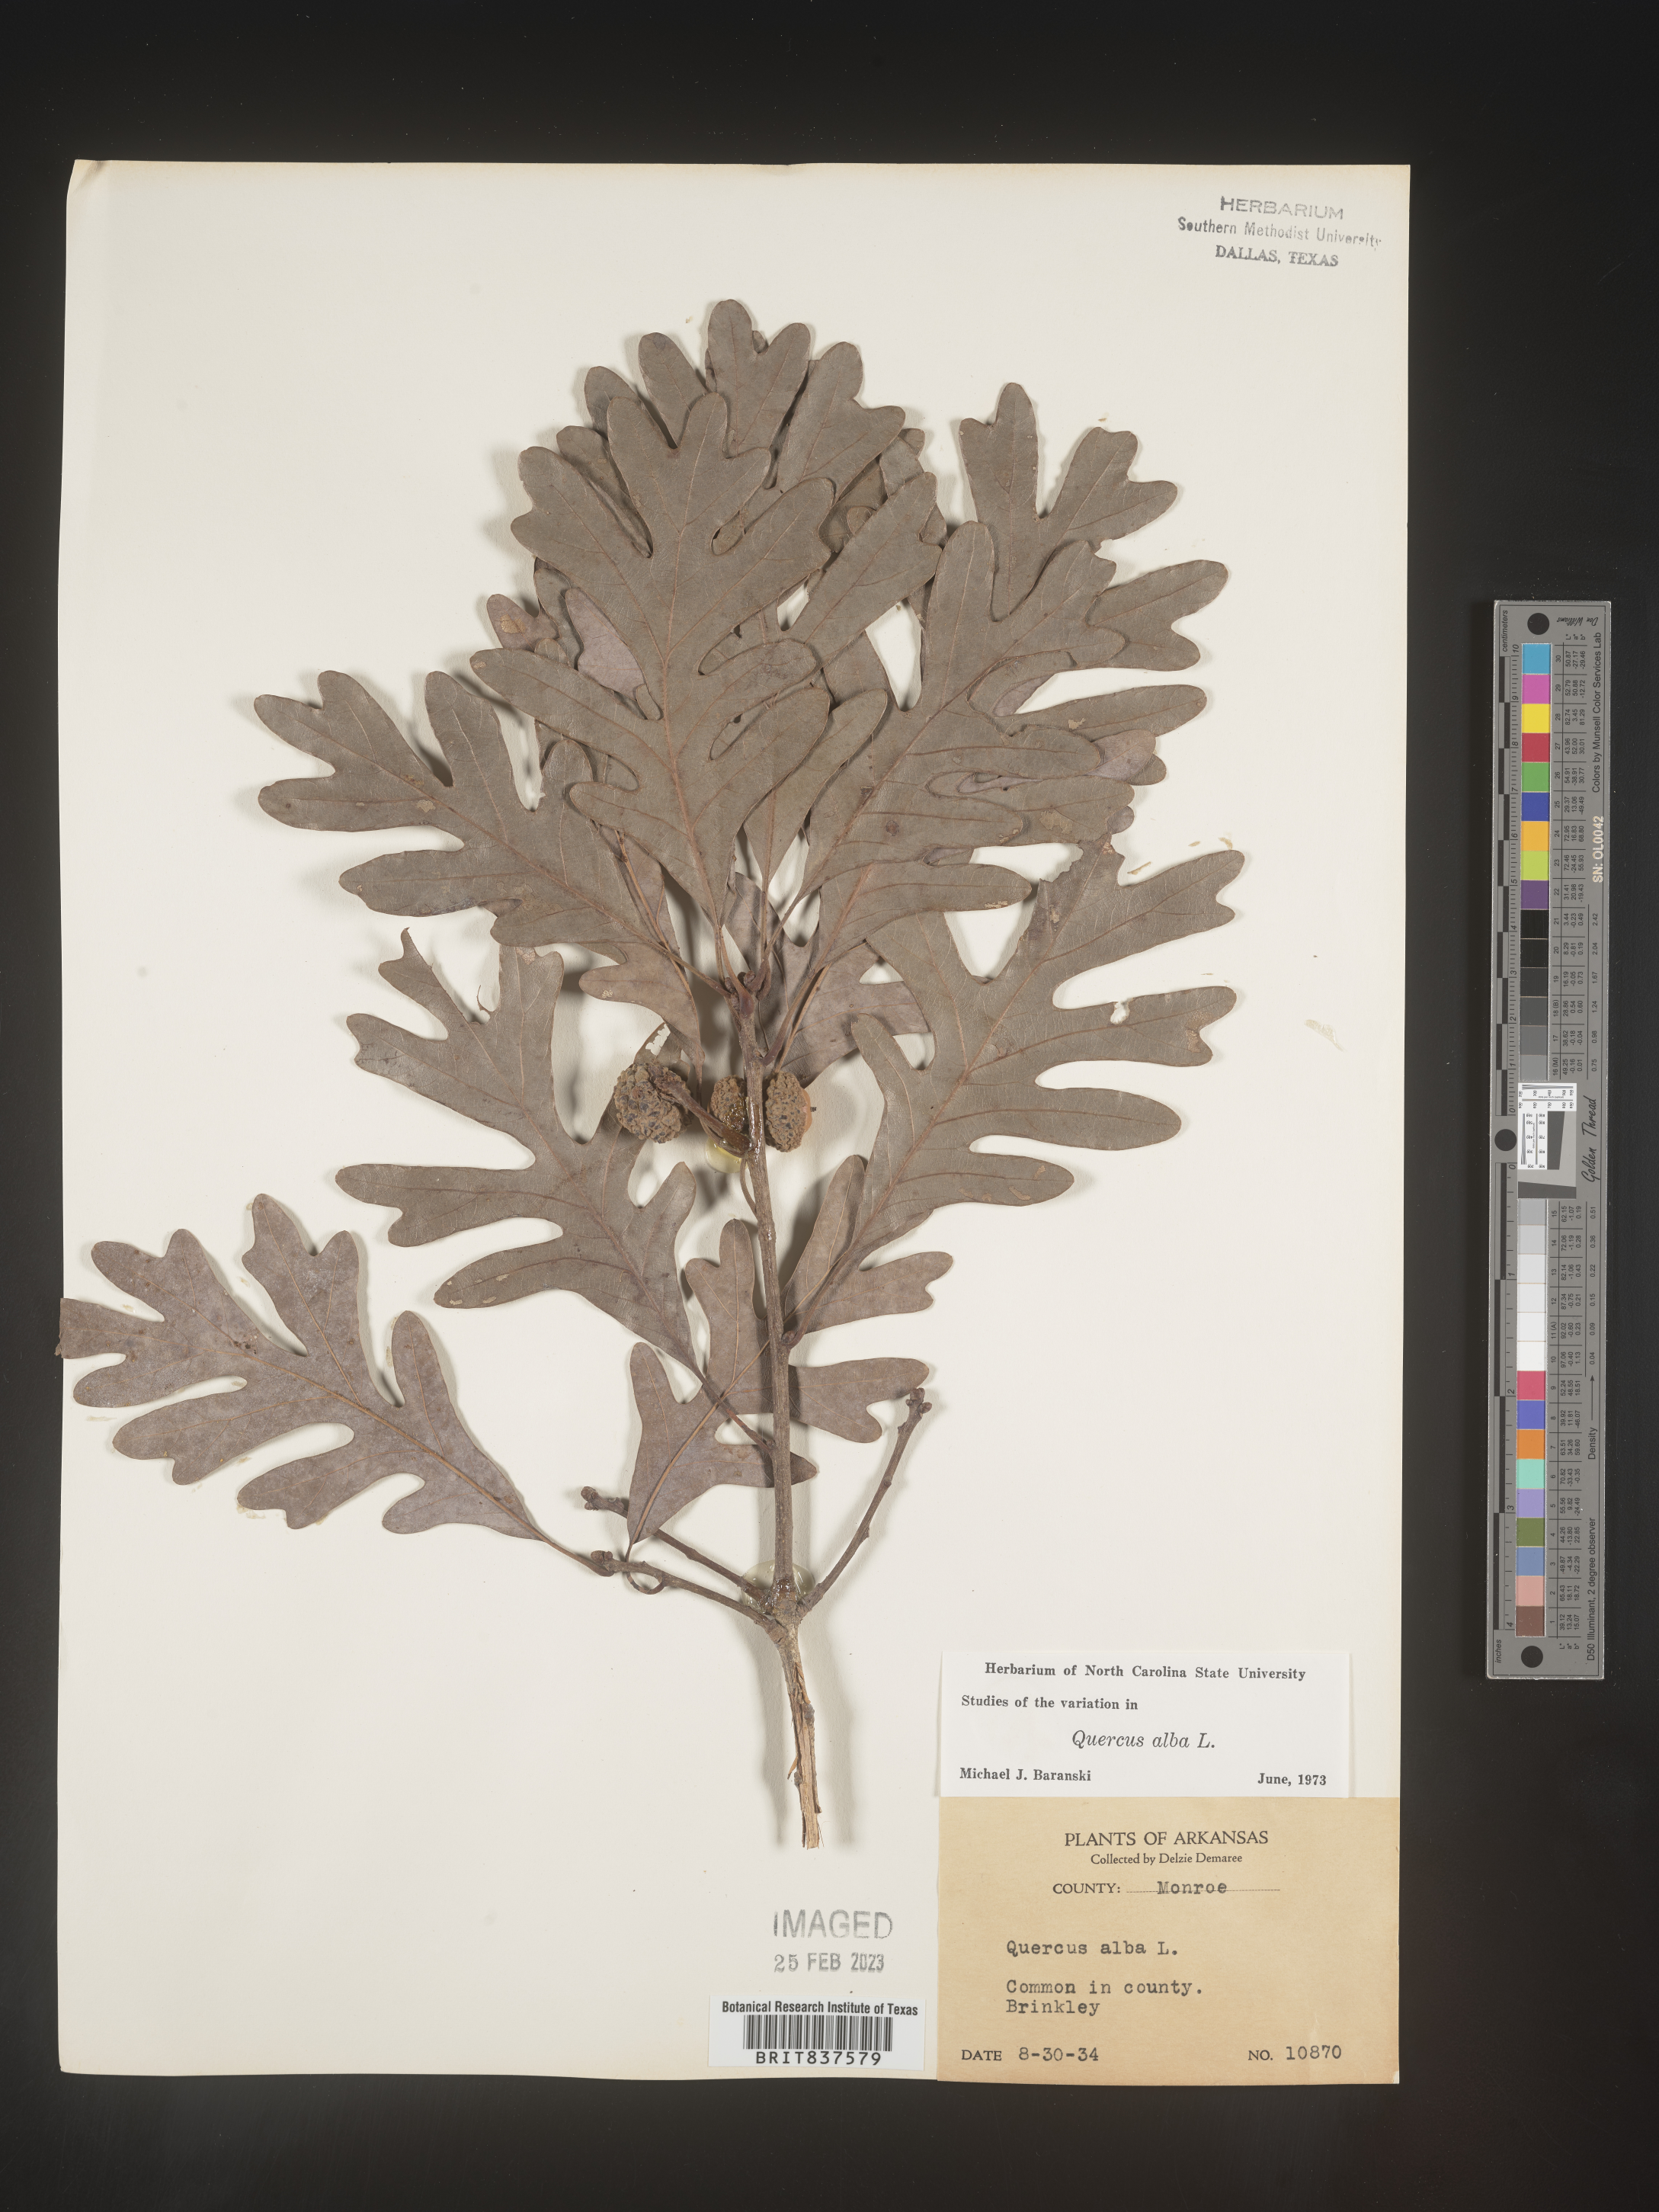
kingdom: Plantae
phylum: Tracheophyta
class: Magnoliopsida
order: Fagales
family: Fagaceae
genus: Quercus
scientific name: Quercus alba
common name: White oak
